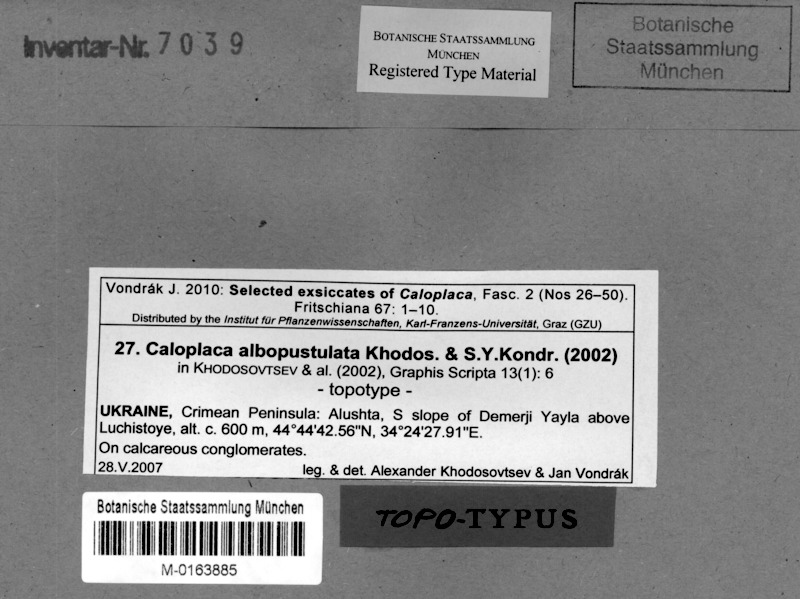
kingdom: Fungi
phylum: Ascomycota
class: Lecanoromycetes
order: Teloschistales
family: Teloschistaceae
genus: Pyrenodesmia
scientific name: Pyrenodesmia albopustulata
